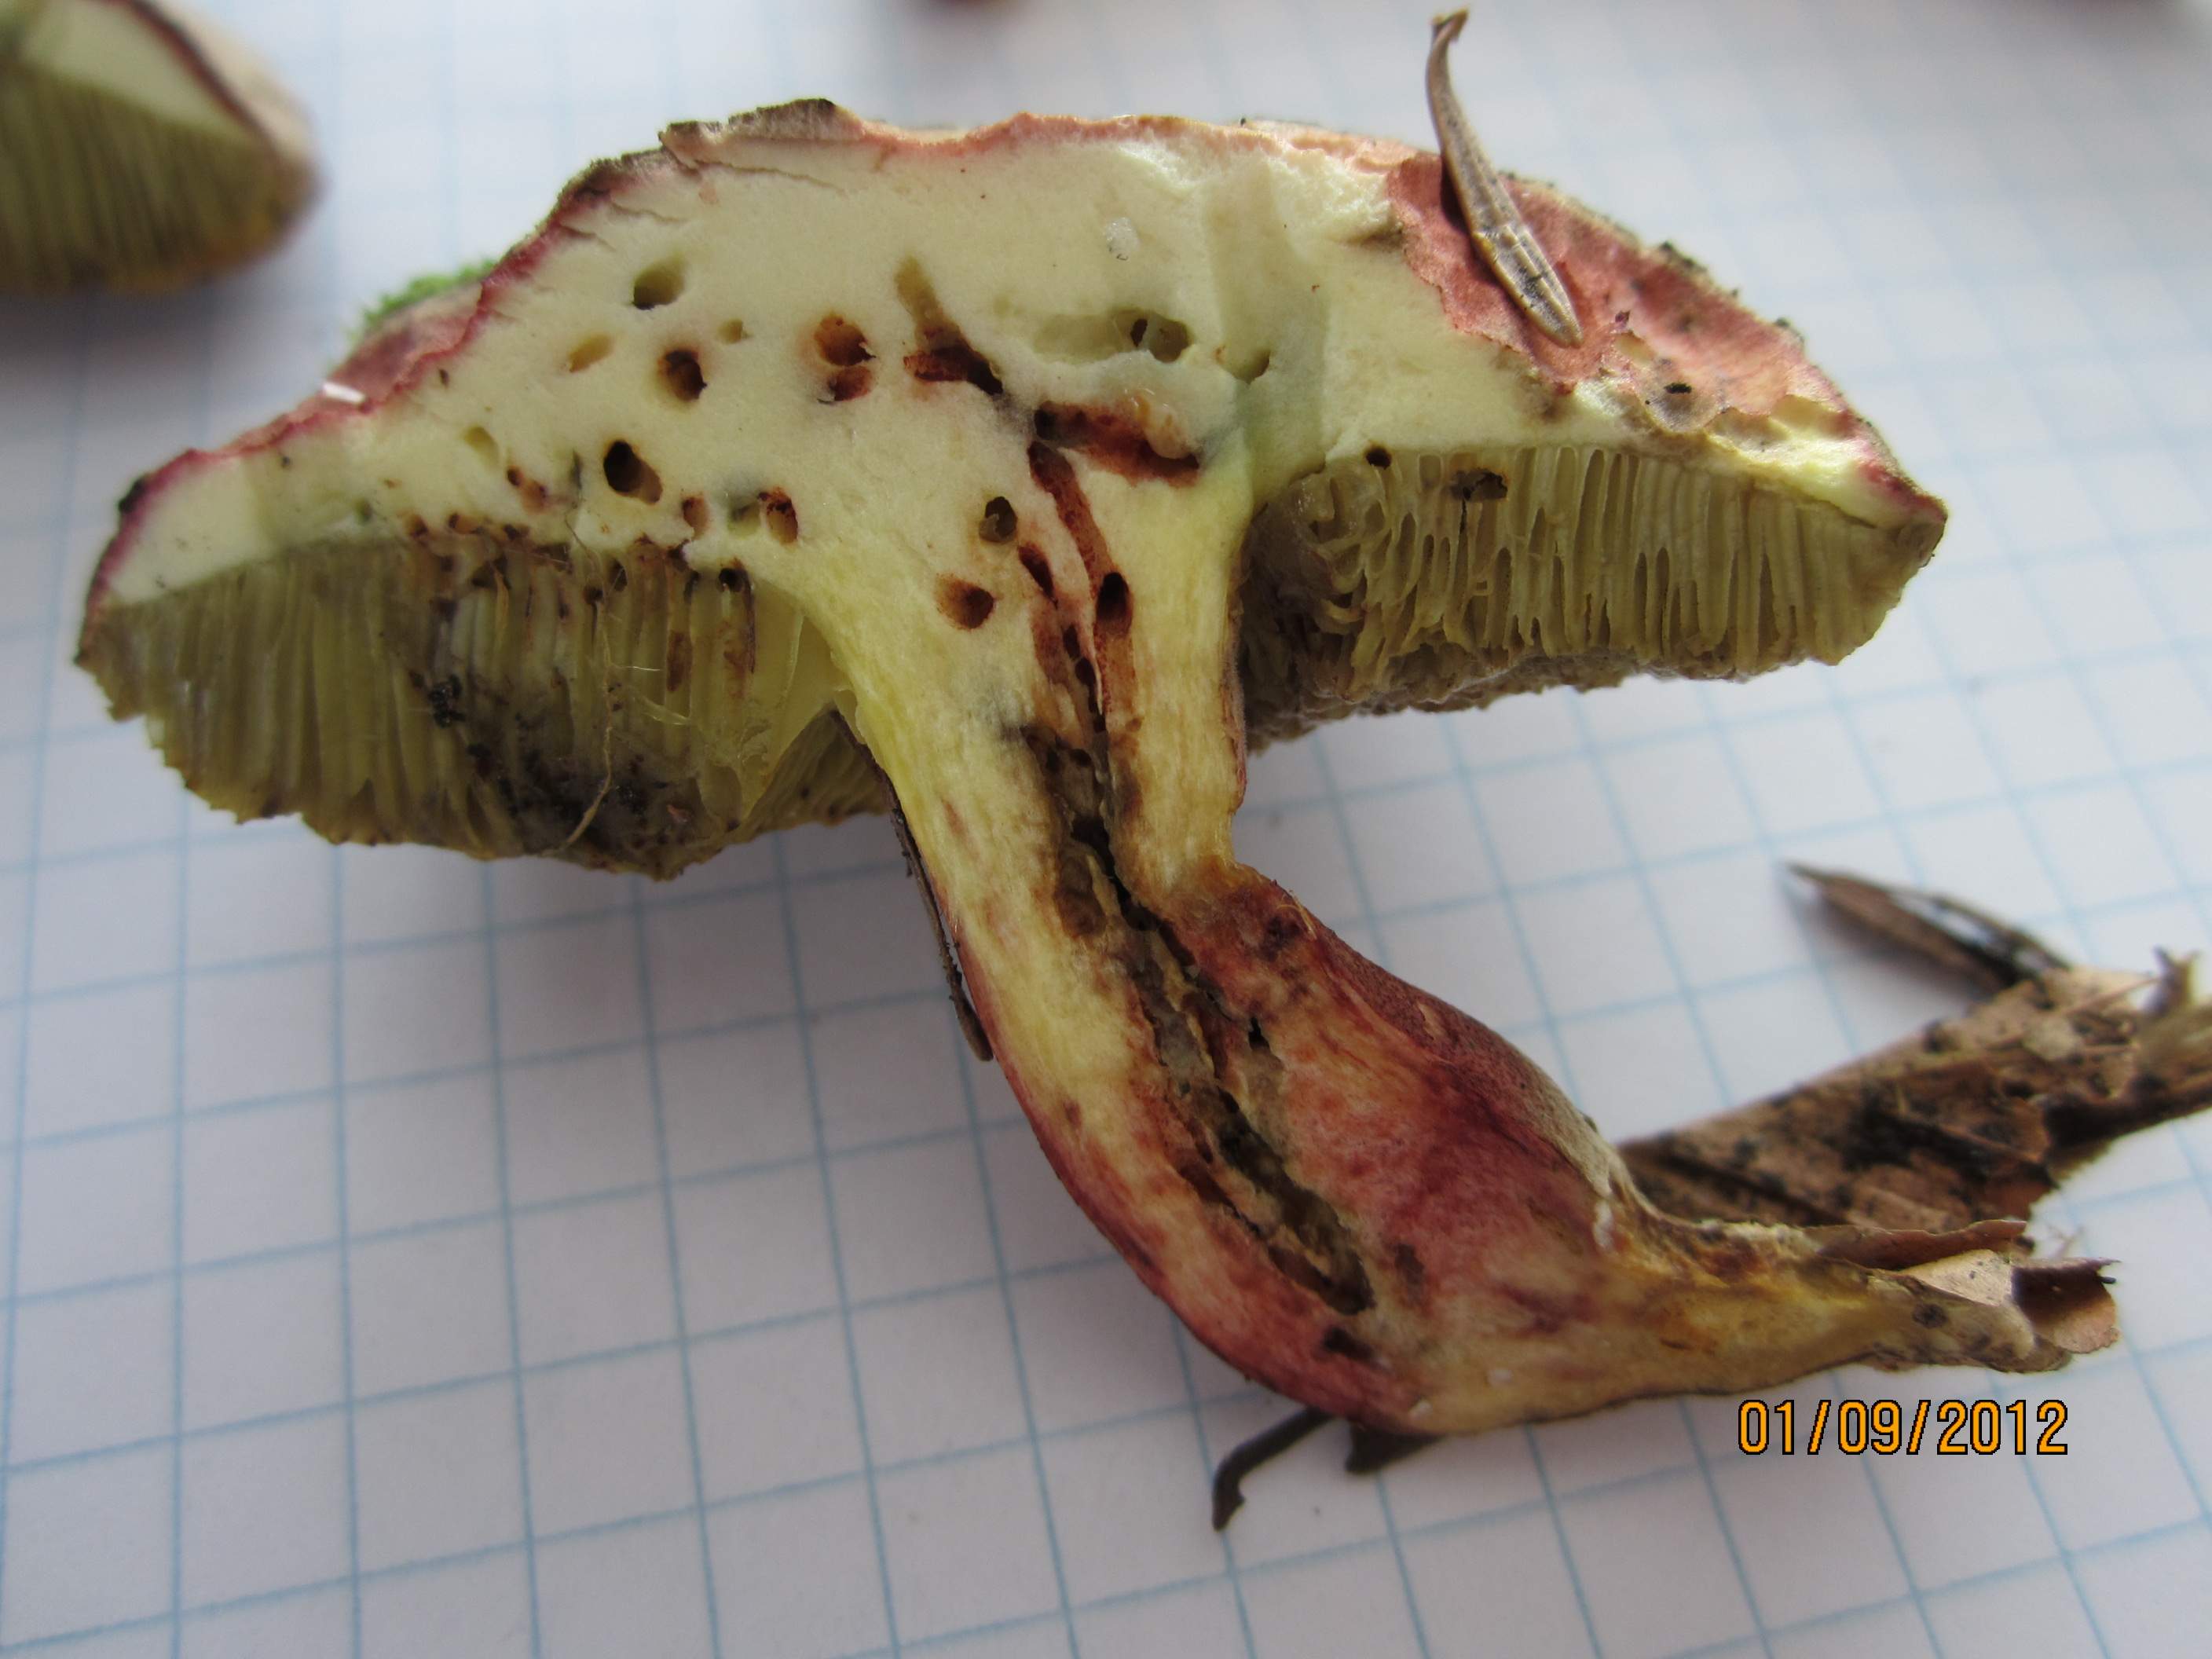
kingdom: Fungi
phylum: Basidiomycota
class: Agaricomycetes
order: Boletales
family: Boletaceae
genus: Xerocomellus
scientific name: Xerocomellus chrysenteron
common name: rødsprukken rørhat
